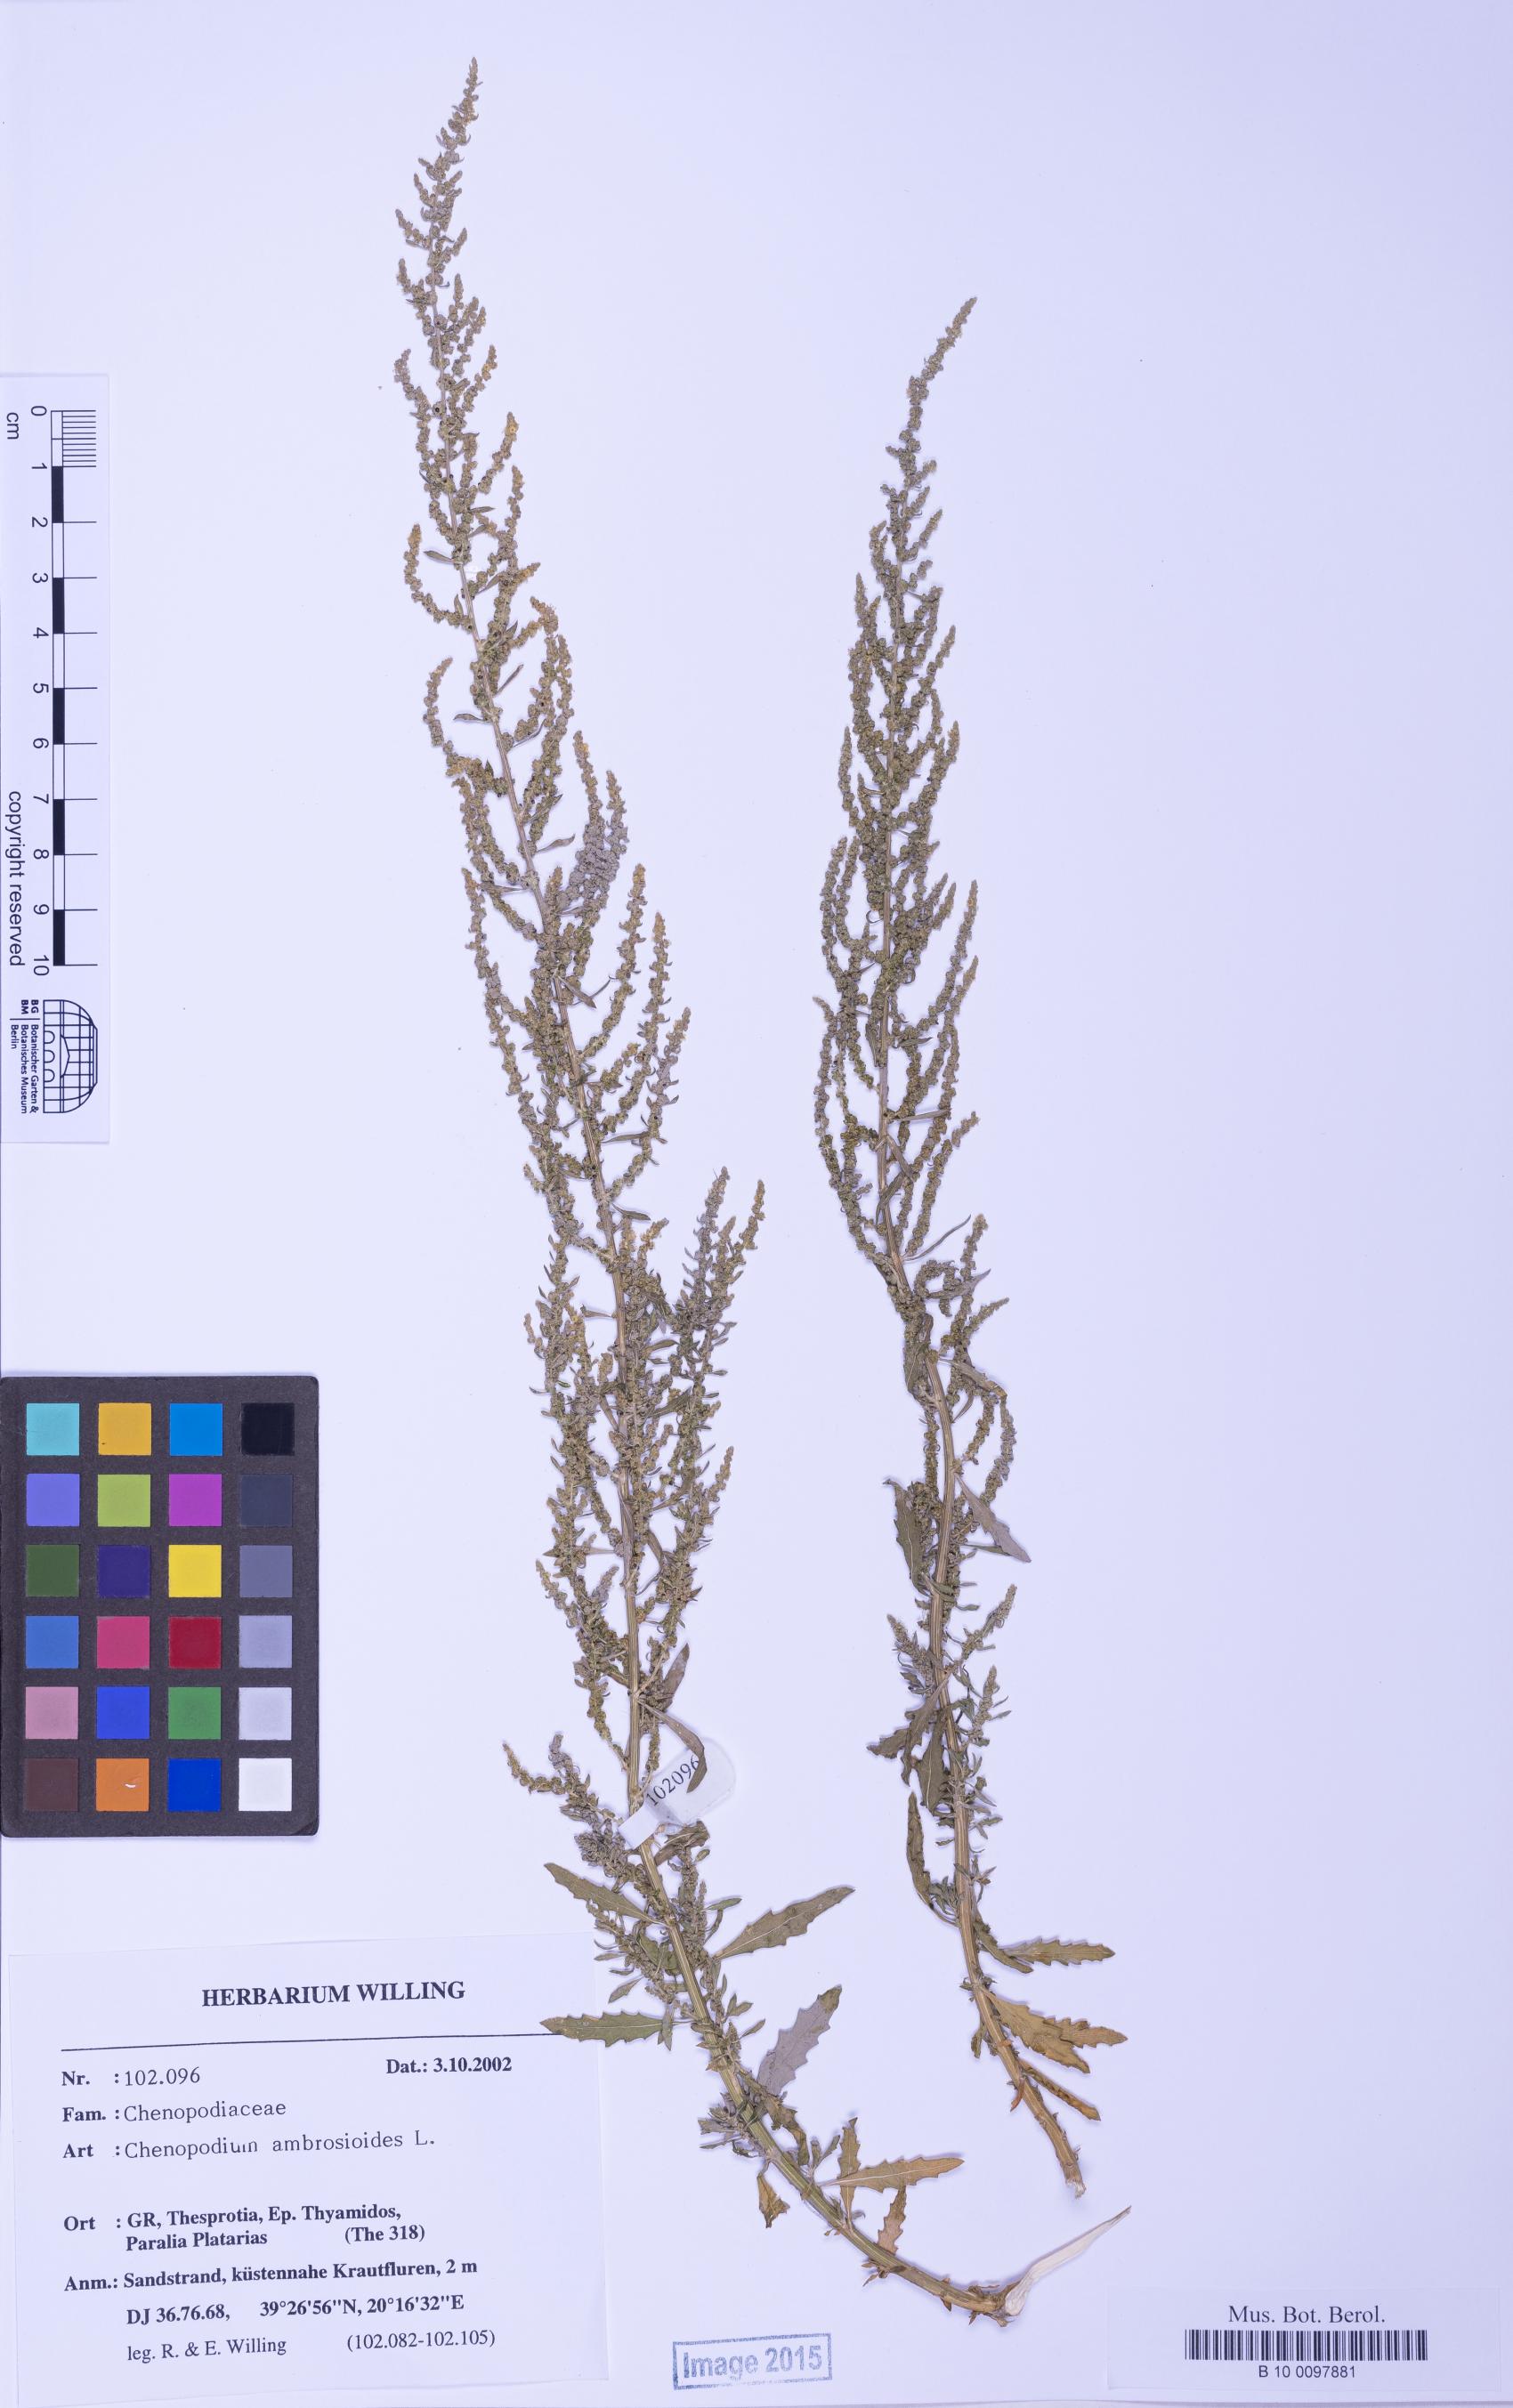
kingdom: Plantae
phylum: Tracheophyta
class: Magnoliopsida
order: Caryophyllales
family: Amaranthaceae
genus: Dysphania
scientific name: Dysphania ambrosioides
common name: Wormseed
